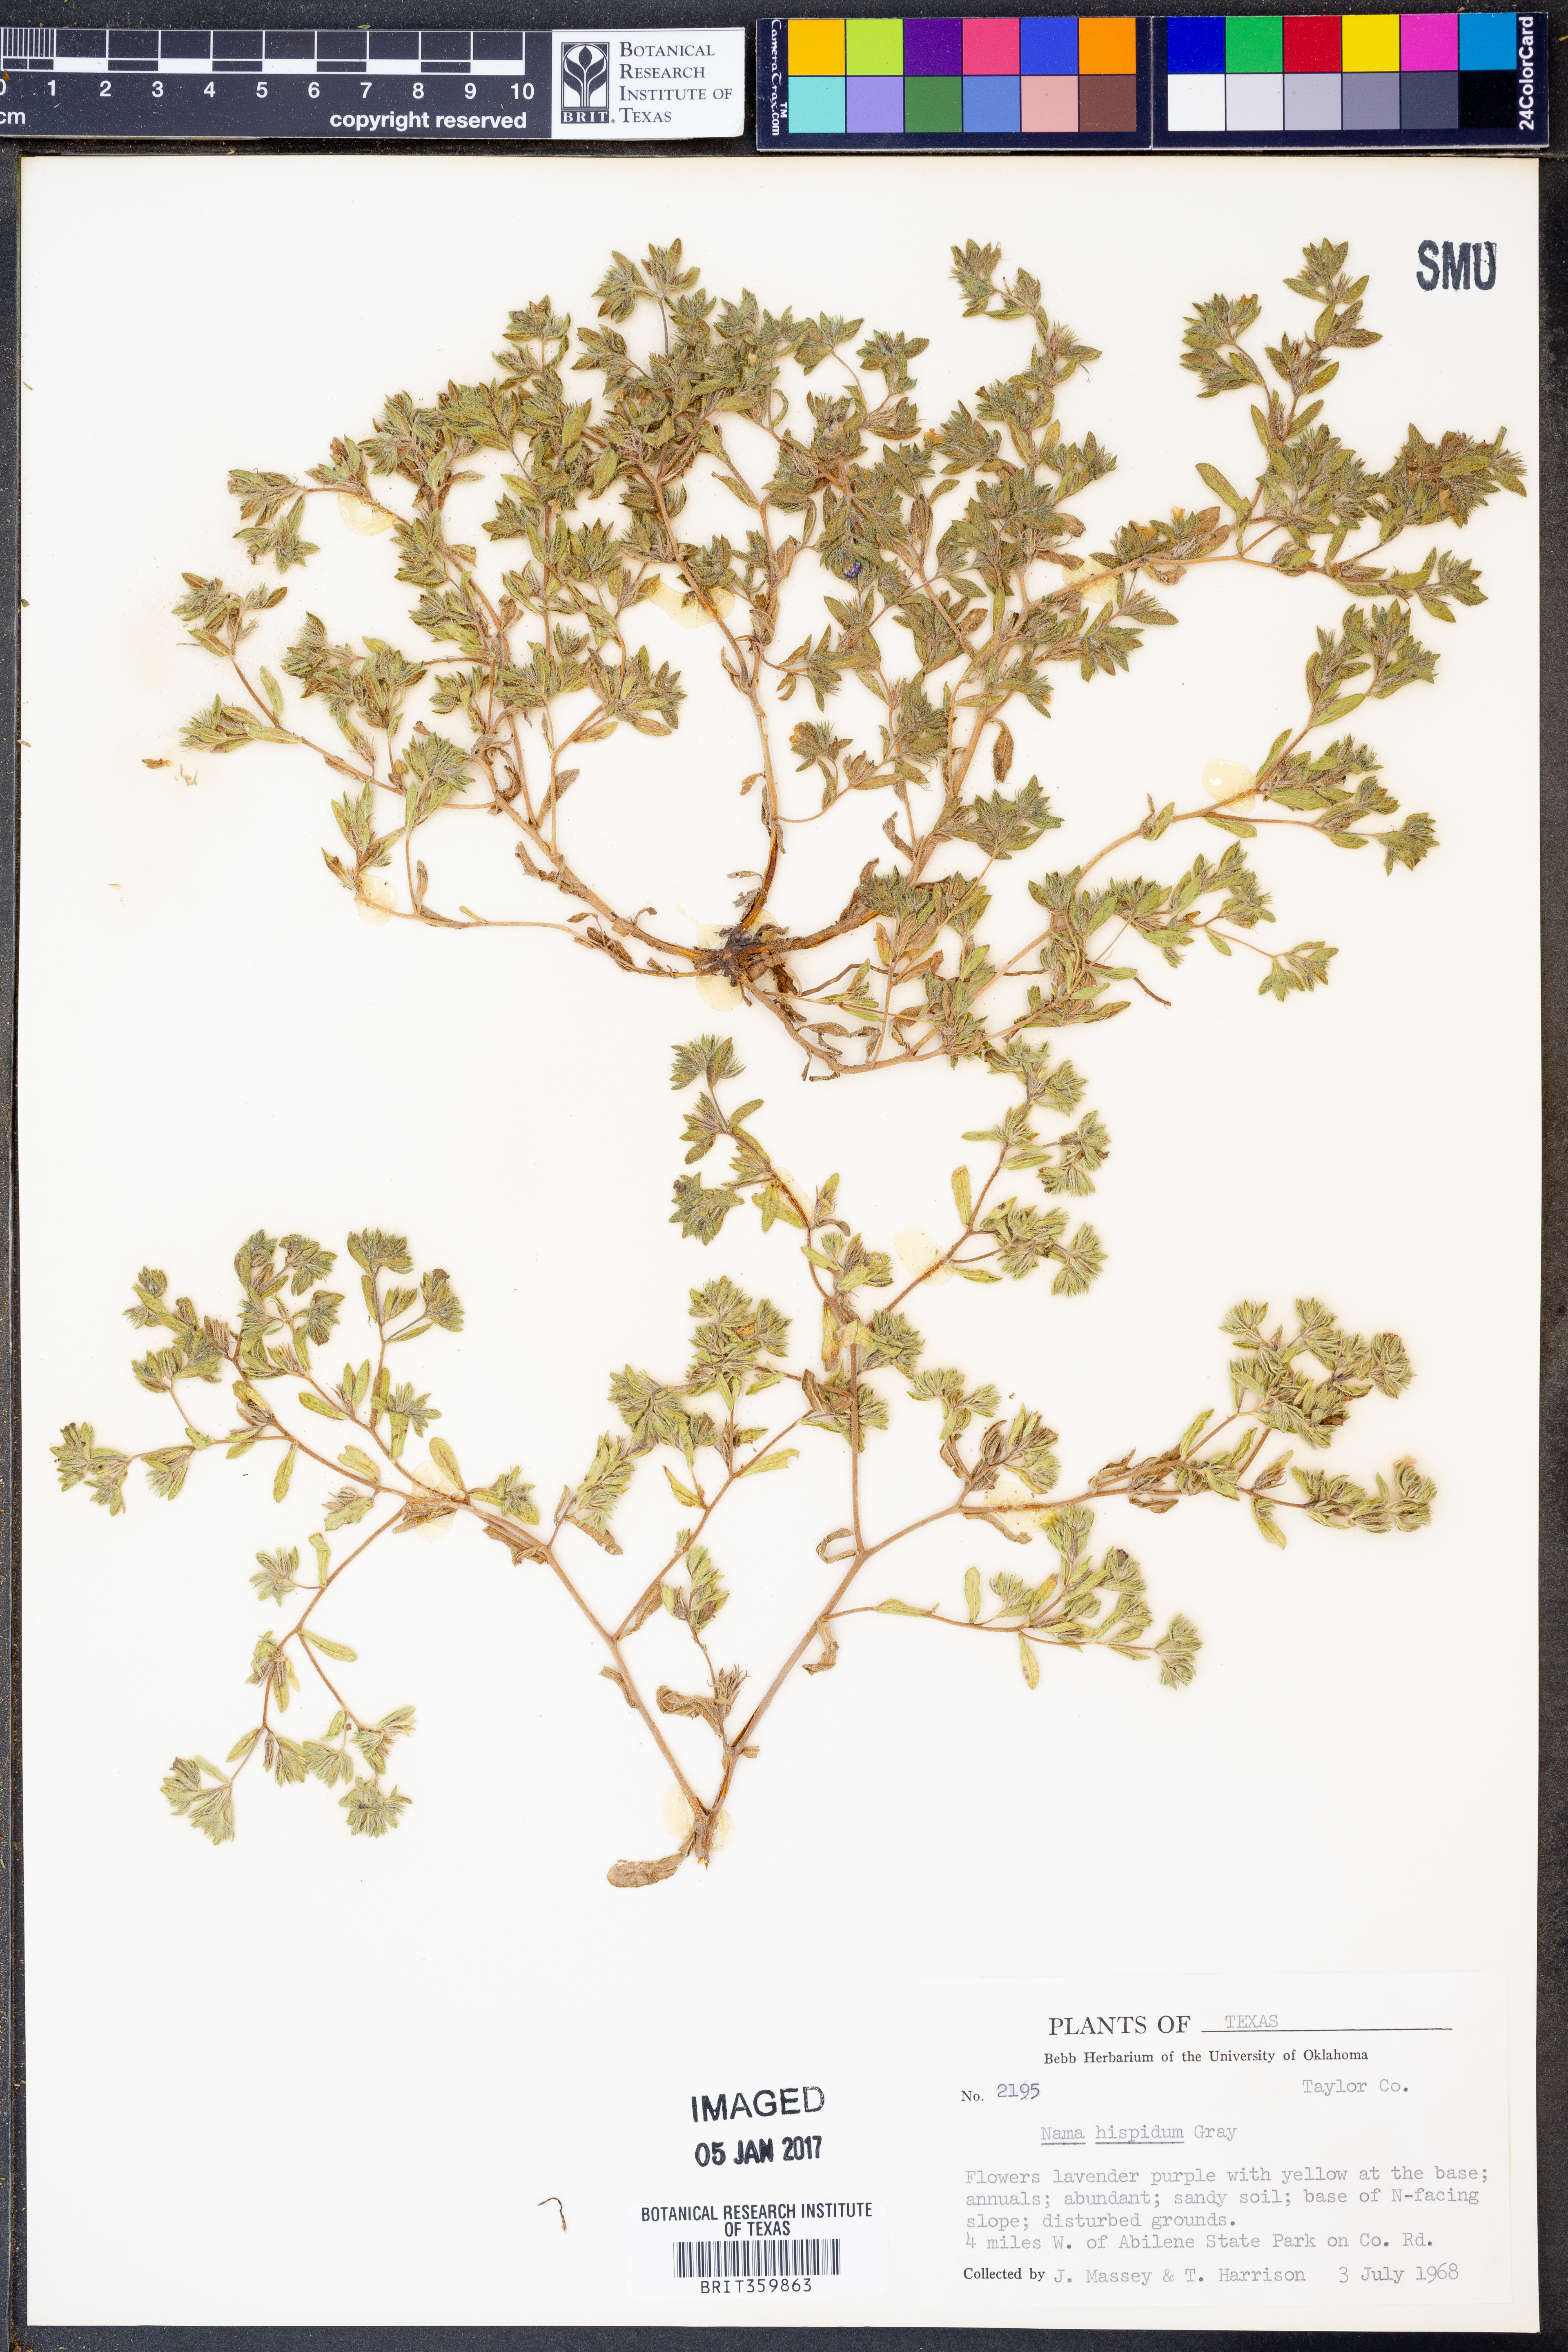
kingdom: Plantae
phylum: Tracheophyta
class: Magnoliopsida
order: Boraginales
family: Namaceae
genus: Nama
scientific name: Nama hispida
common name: Bristly nama
